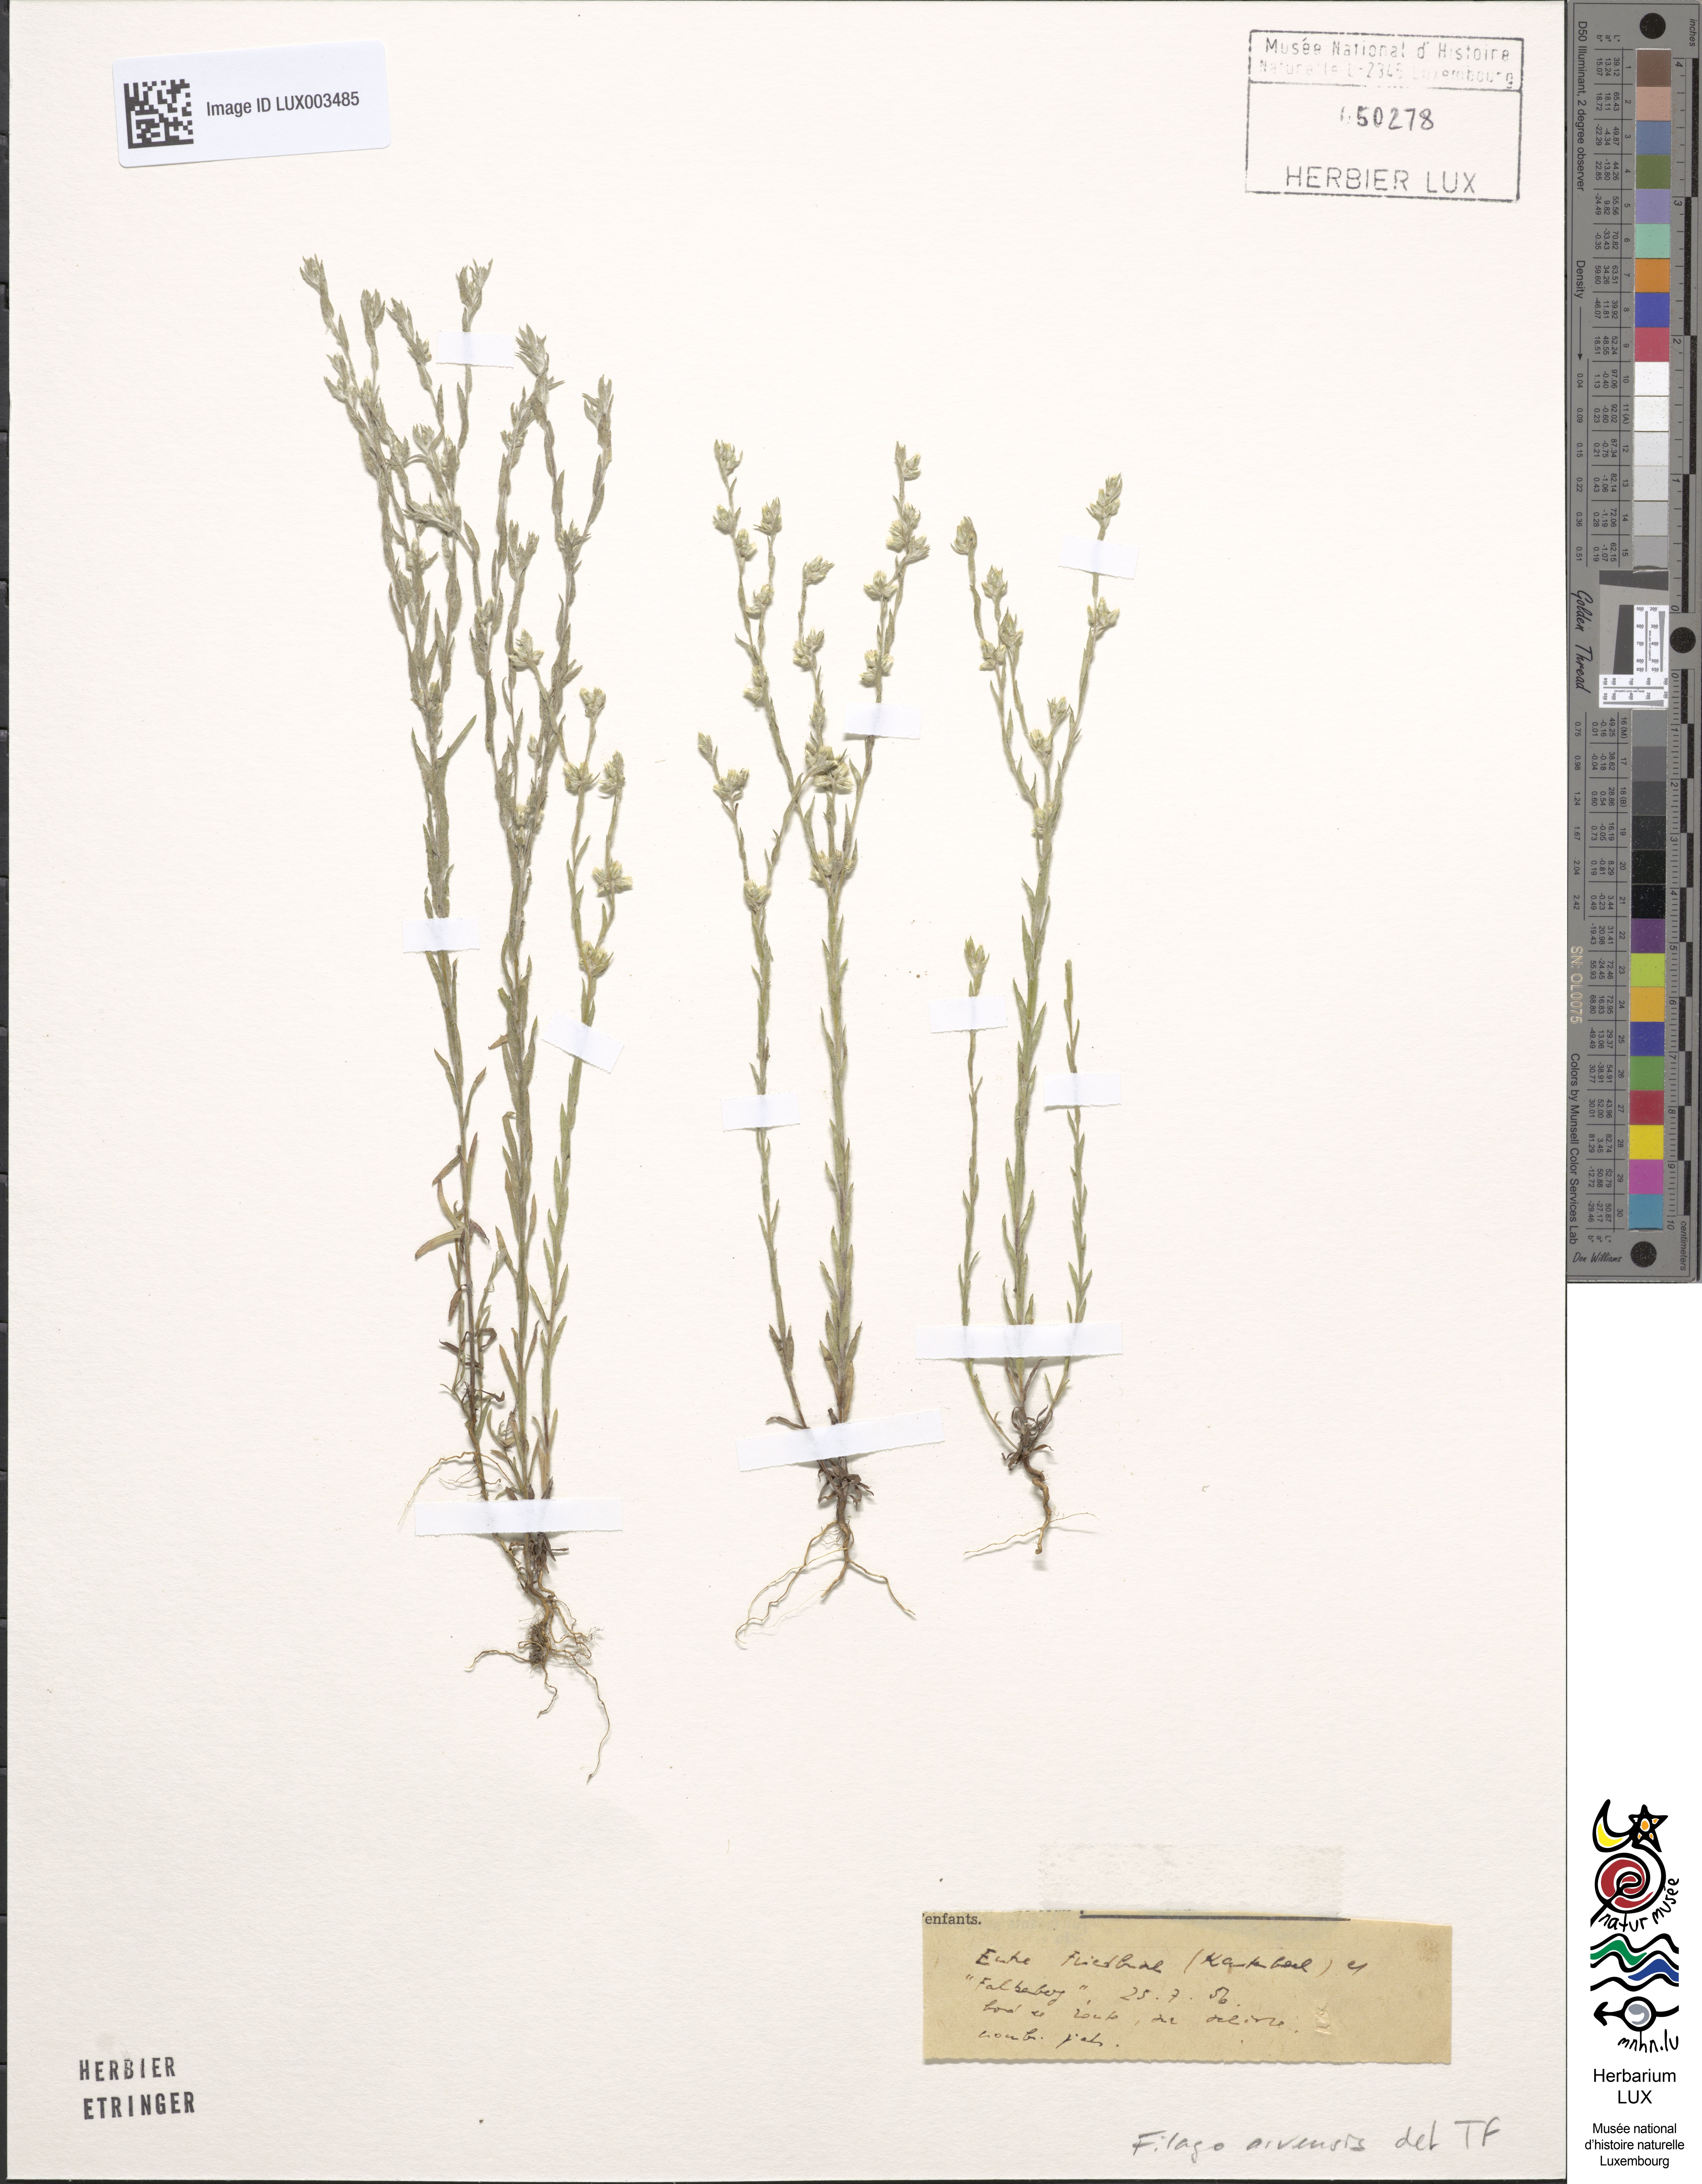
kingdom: Plantae
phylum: Tracheophyta
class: Magnoliopsida
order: Asterales
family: Asteraceae
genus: Filago
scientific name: Filago arvensis
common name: Field cudweed
